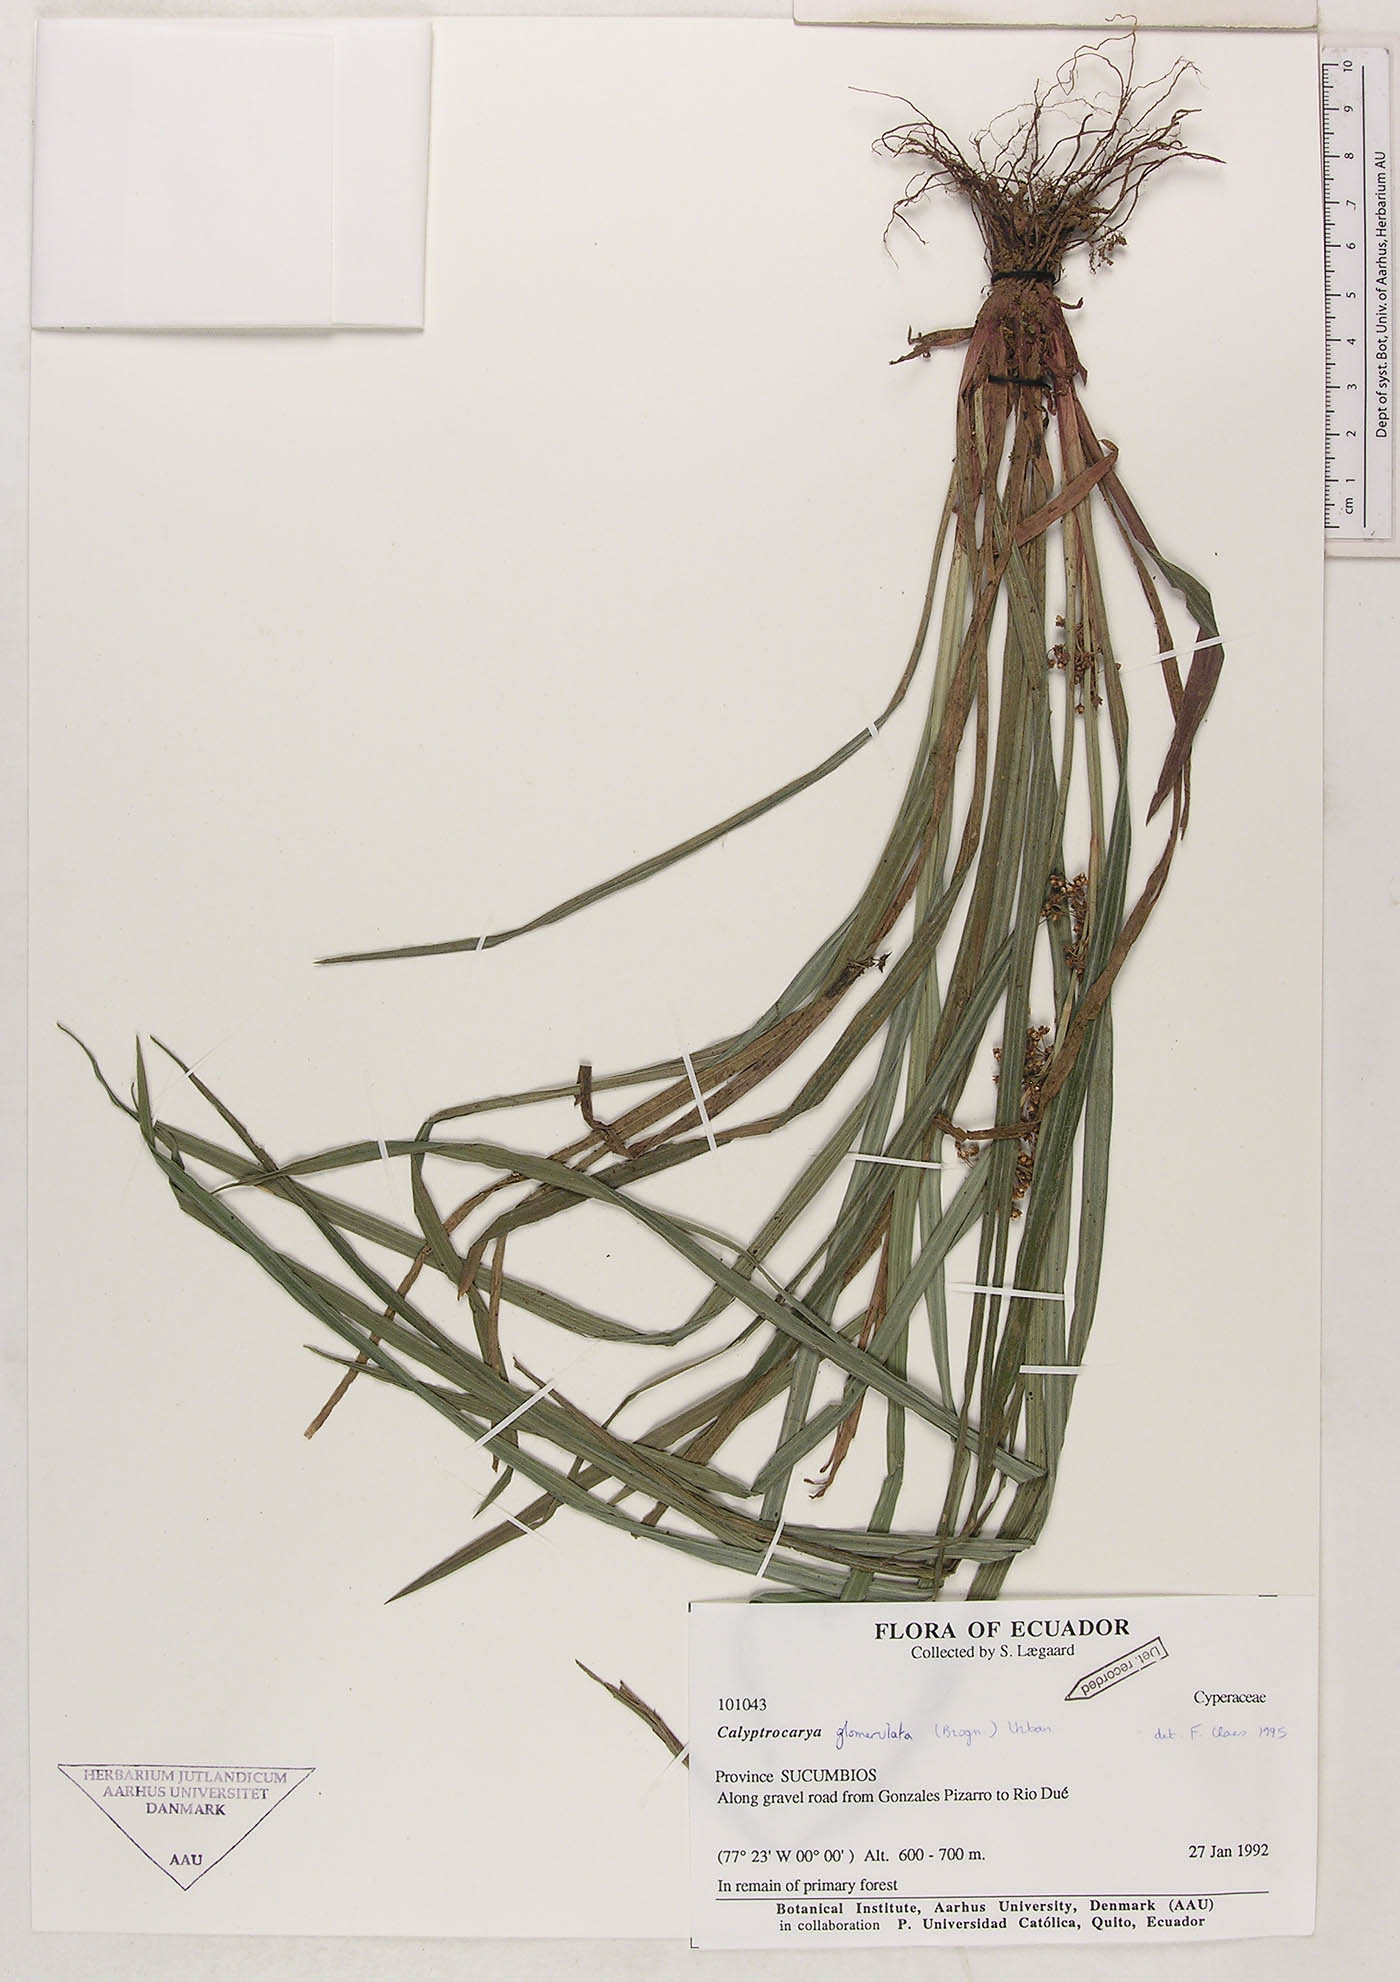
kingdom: Plantae
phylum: Tracheophyta
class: Liliopsida
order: Poales
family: Cyperaceae
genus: Calyptrocarya
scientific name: Calyptrocarya glomerulata
